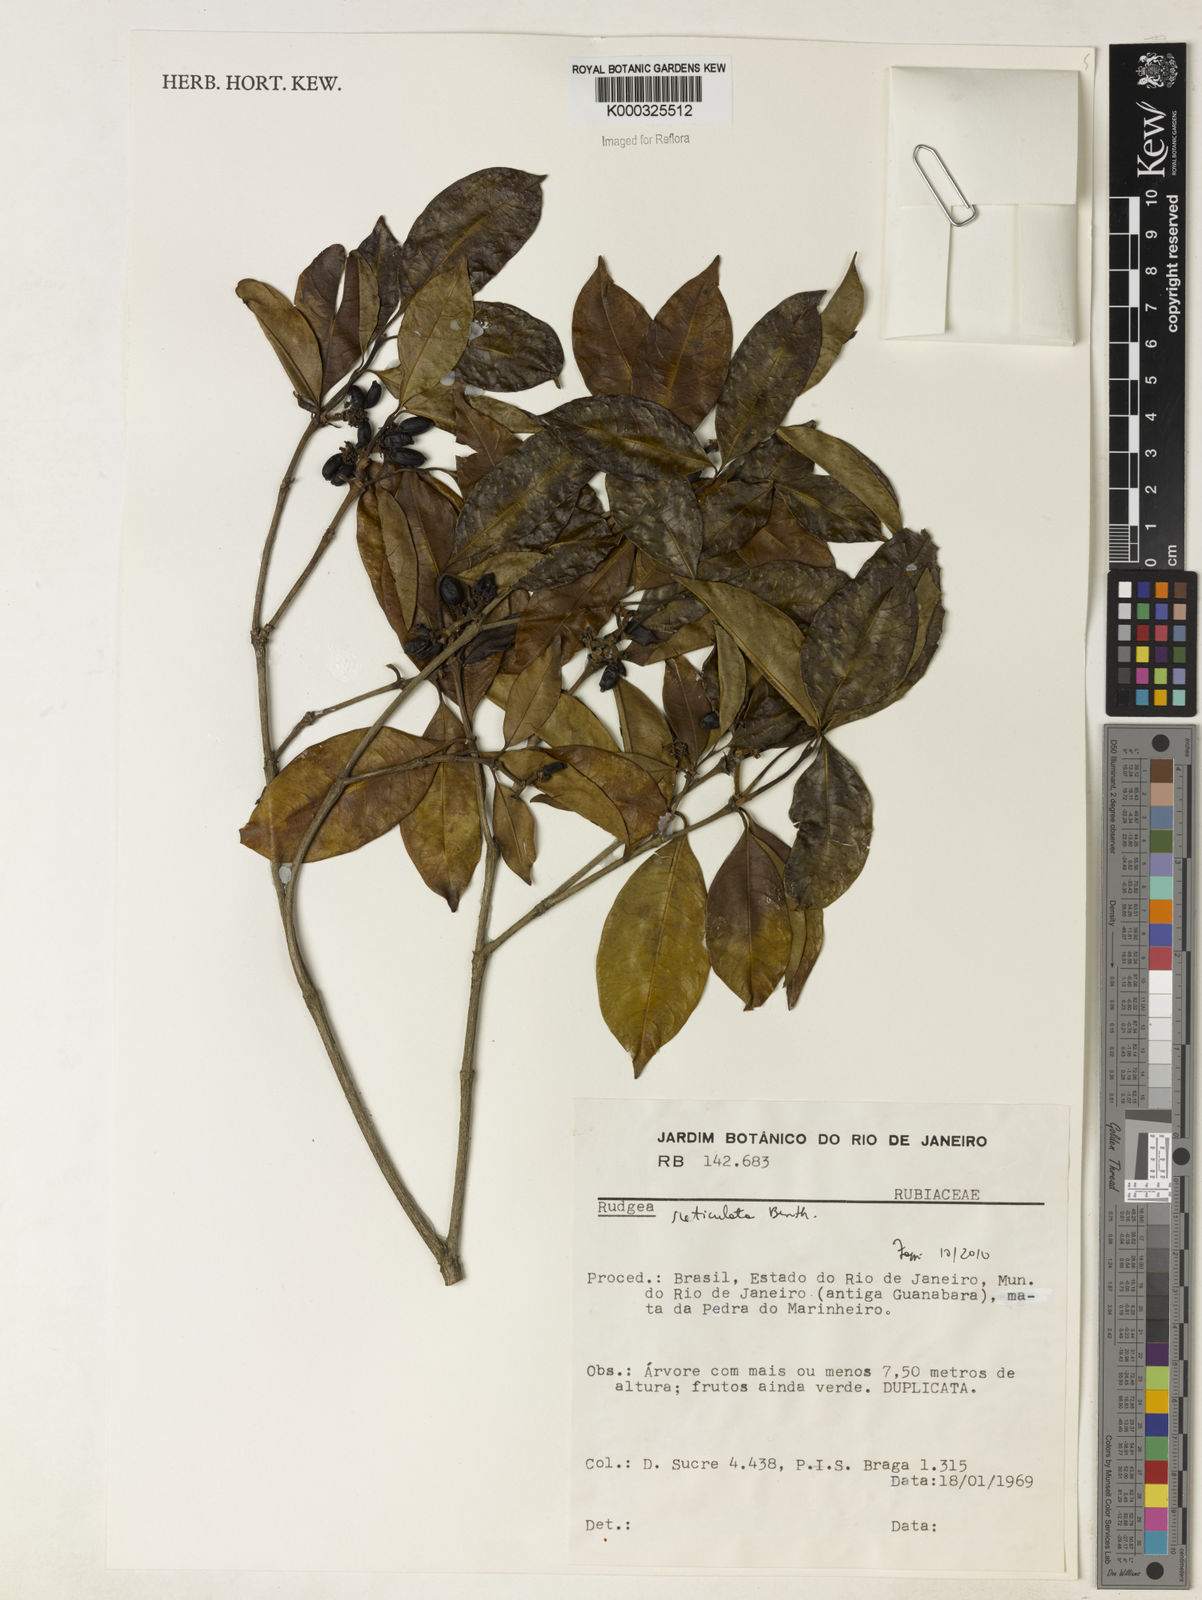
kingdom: Plantae
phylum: Tracheophyta
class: Magnoliopsida
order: Gentianales
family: Rubiaceae
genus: Rudgea
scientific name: Rudgea reticulata
